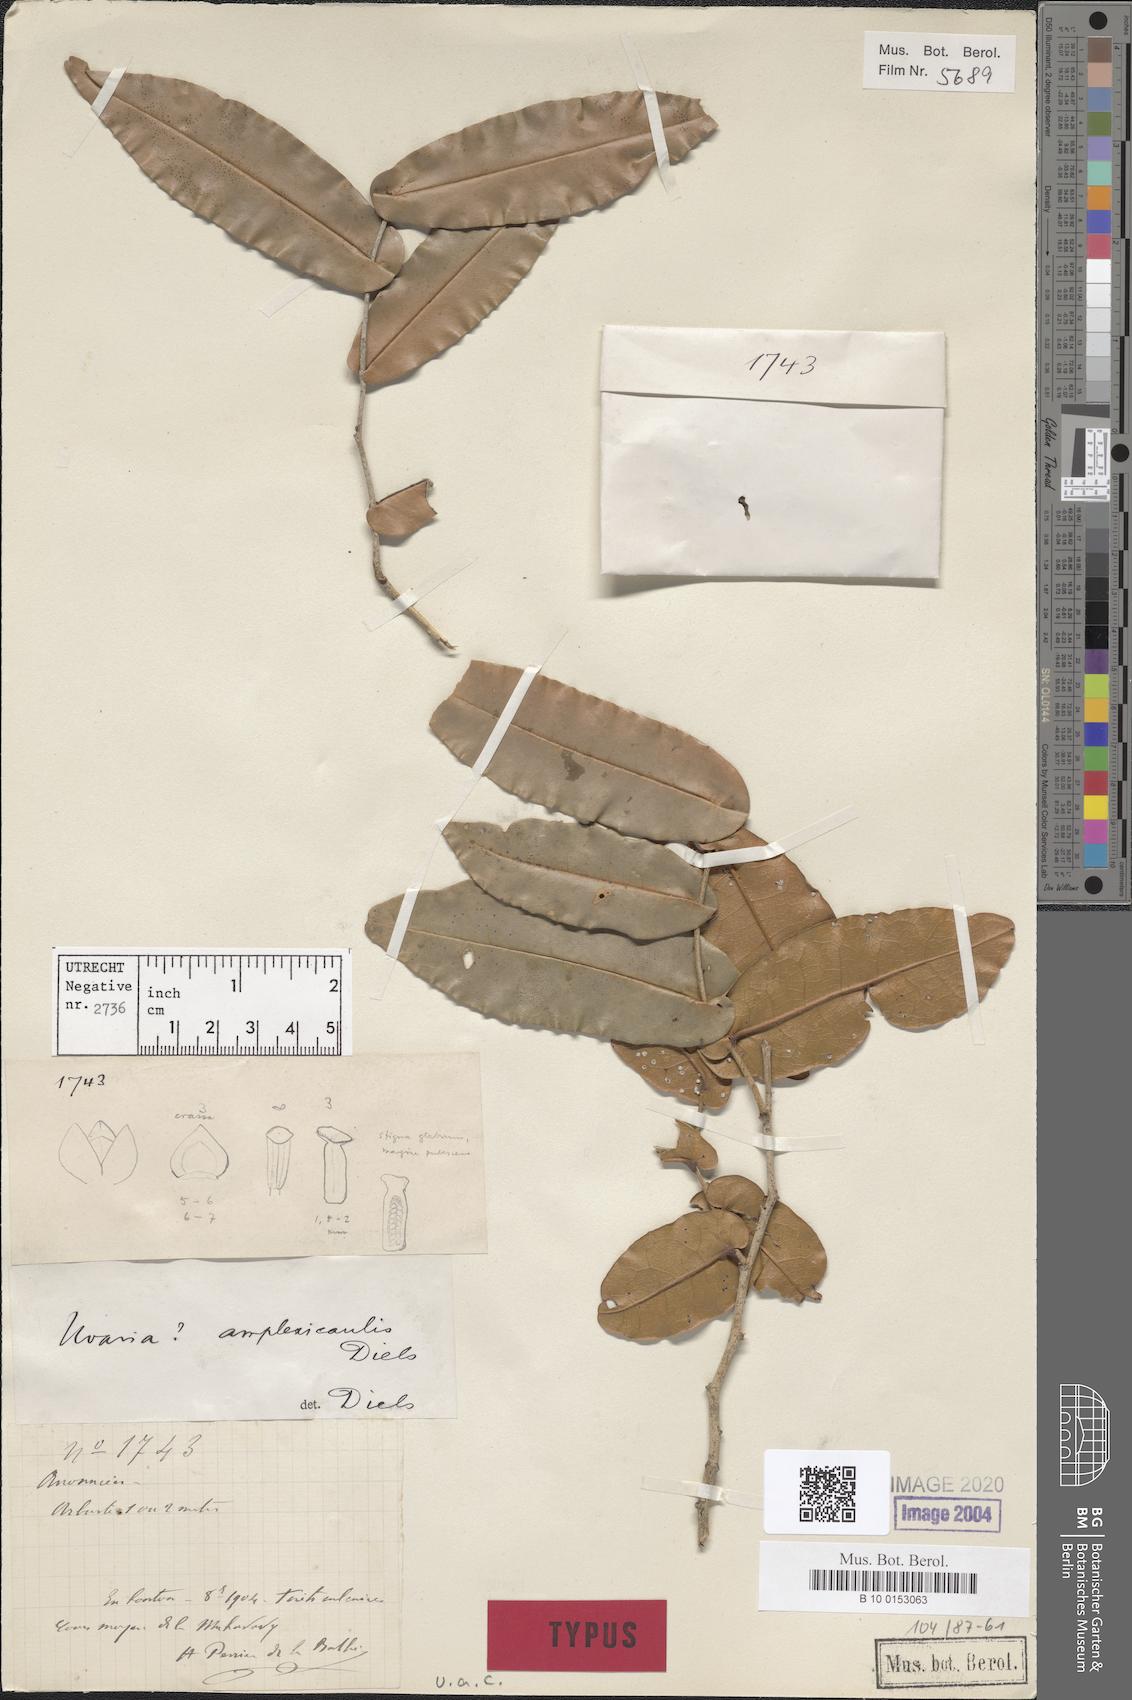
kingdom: Plantae
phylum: Tracheophyta
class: Magnoliopsida
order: Magnoliales
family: Annonaceae
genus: Uvaria
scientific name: Uvaria amplexicaulis
